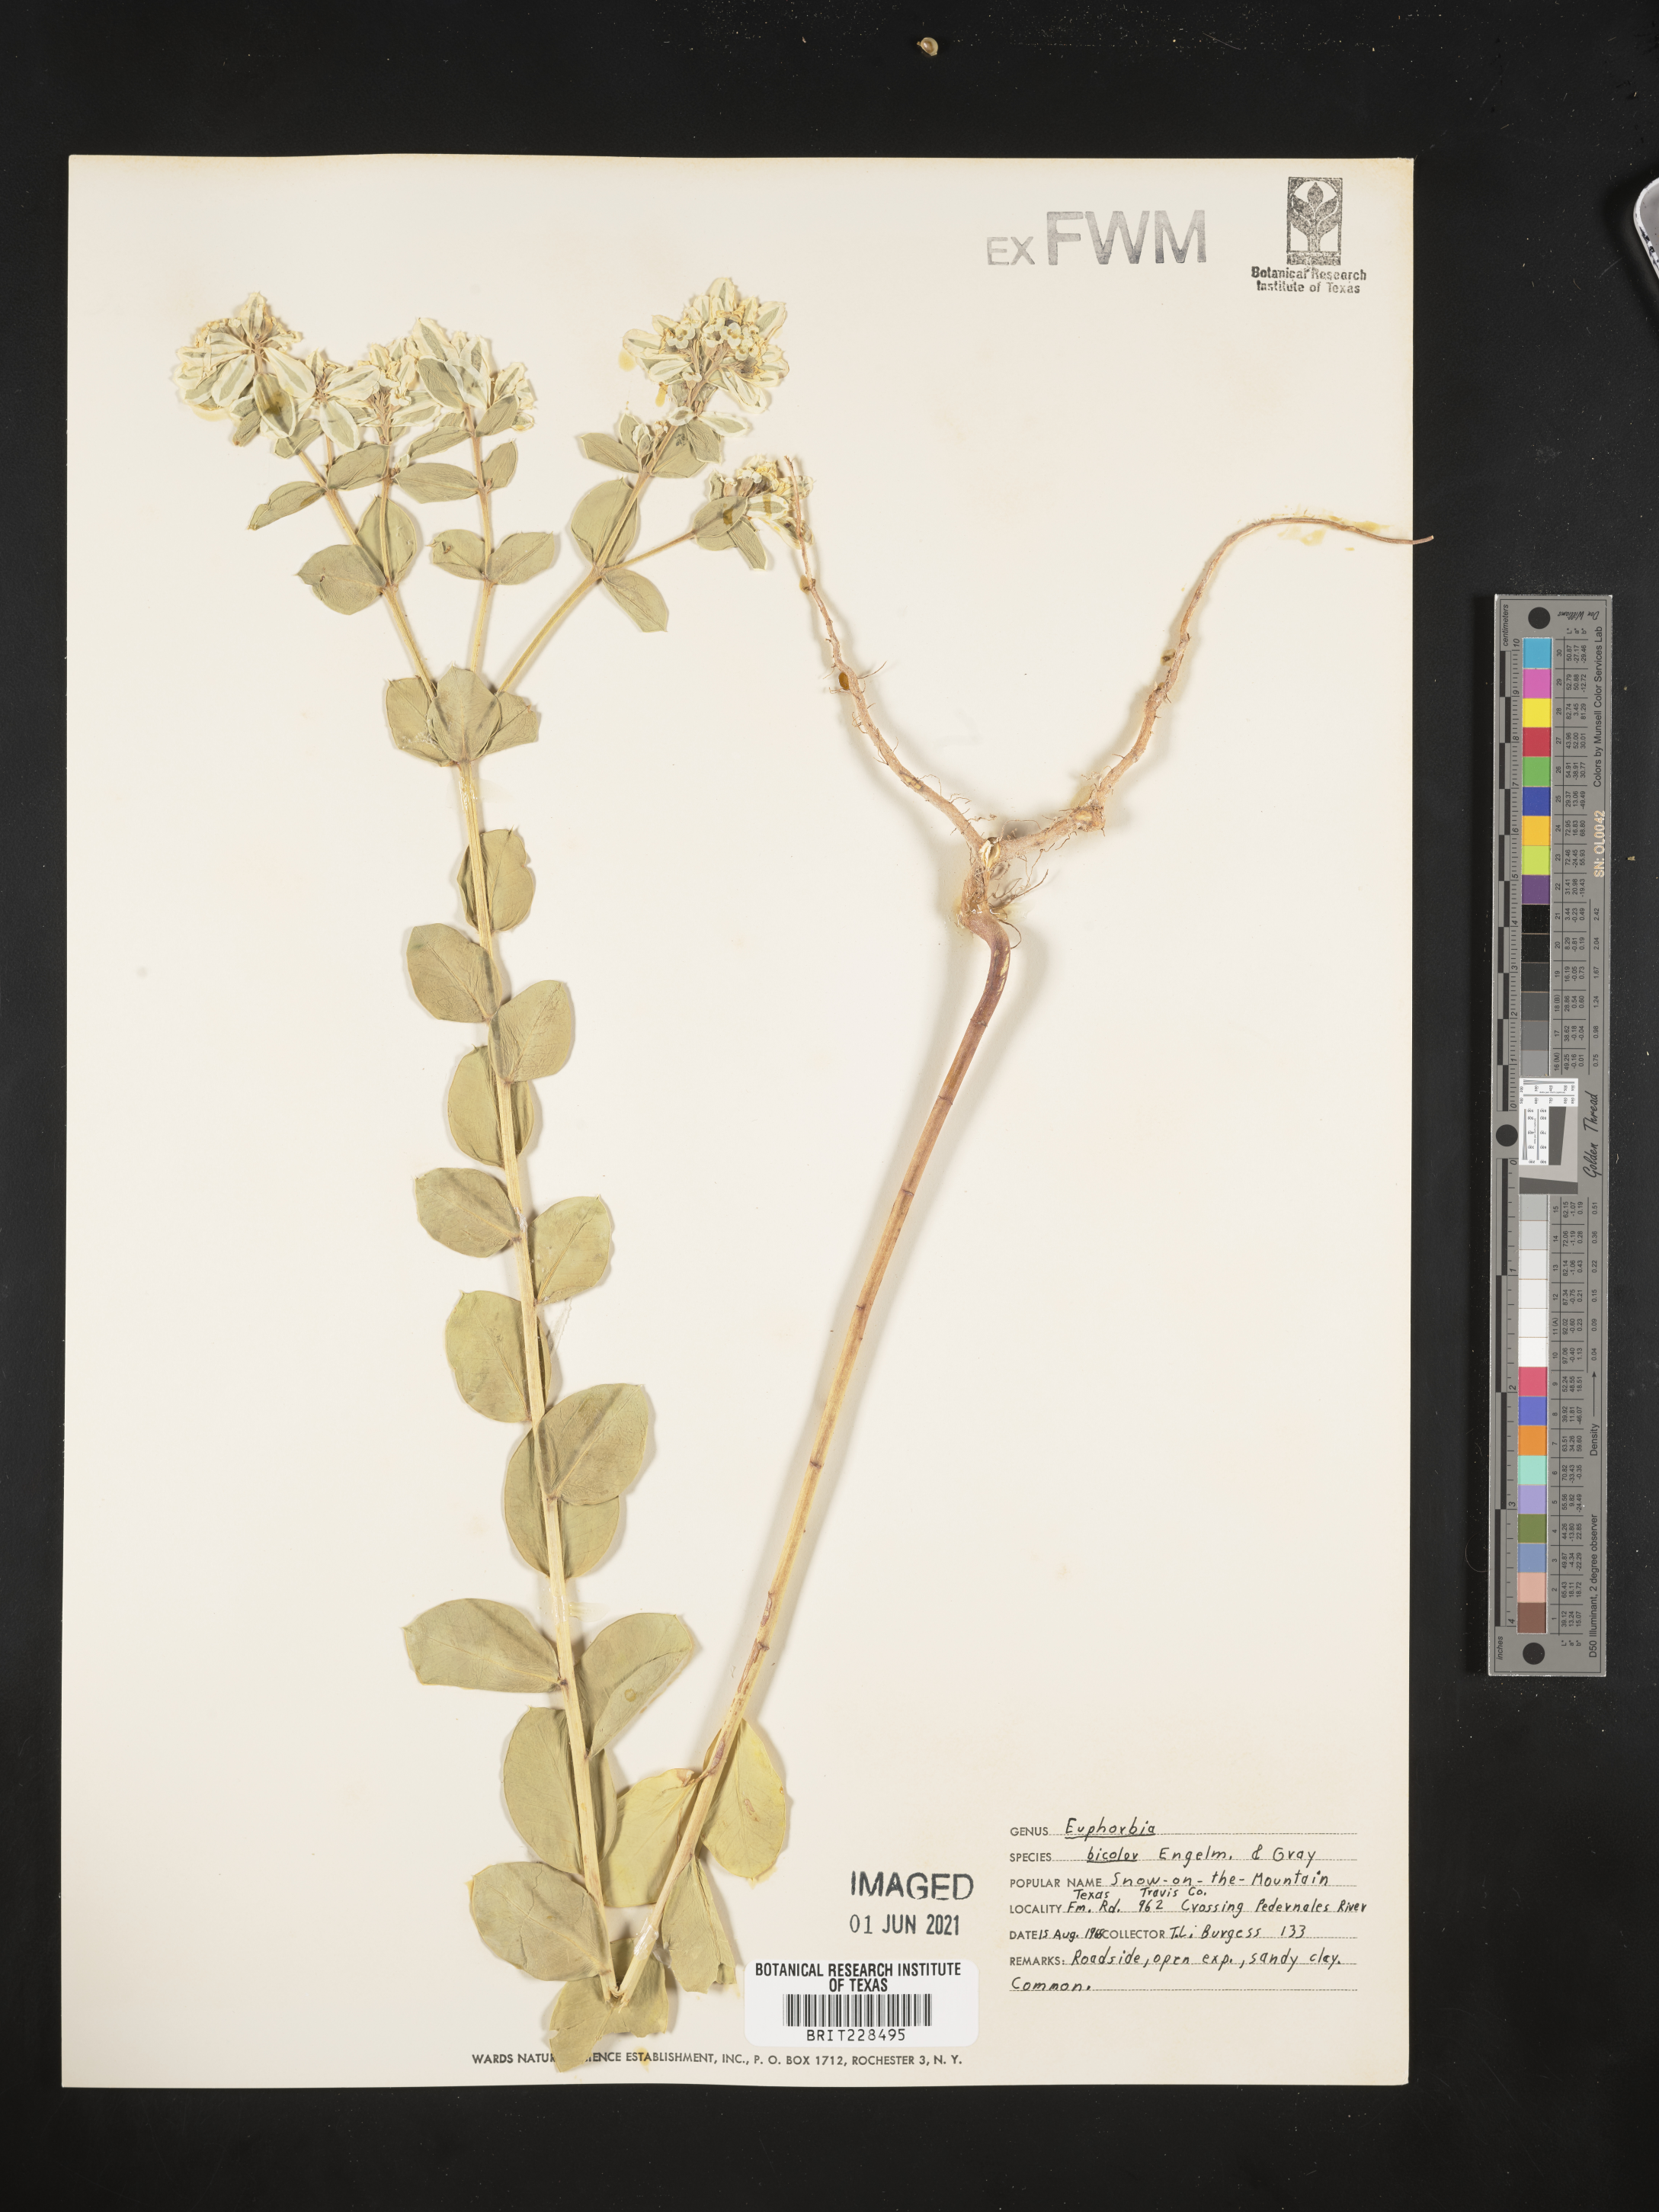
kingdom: Plantae
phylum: Tracheophyta
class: Magnoliopsida
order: Malpighiales
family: Euphorbiaceae
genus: Euphorbia
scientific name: Euphorbia bicolor
